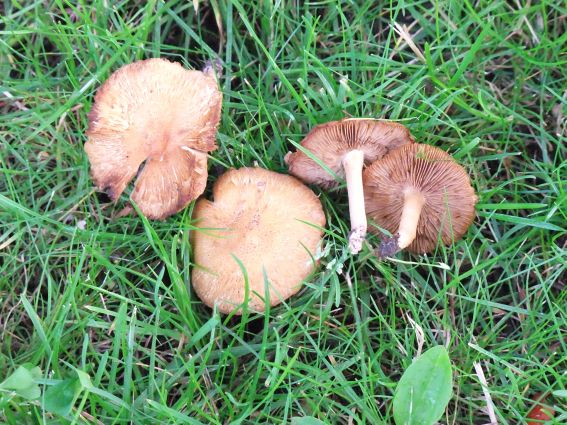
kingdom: Fungi
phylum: Basidiomycota
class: Agaricomycetes
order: Agaricales
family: Inocybaceae
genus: Inosperma
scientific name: Inosperma erubescens
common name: giftig trævlhat
